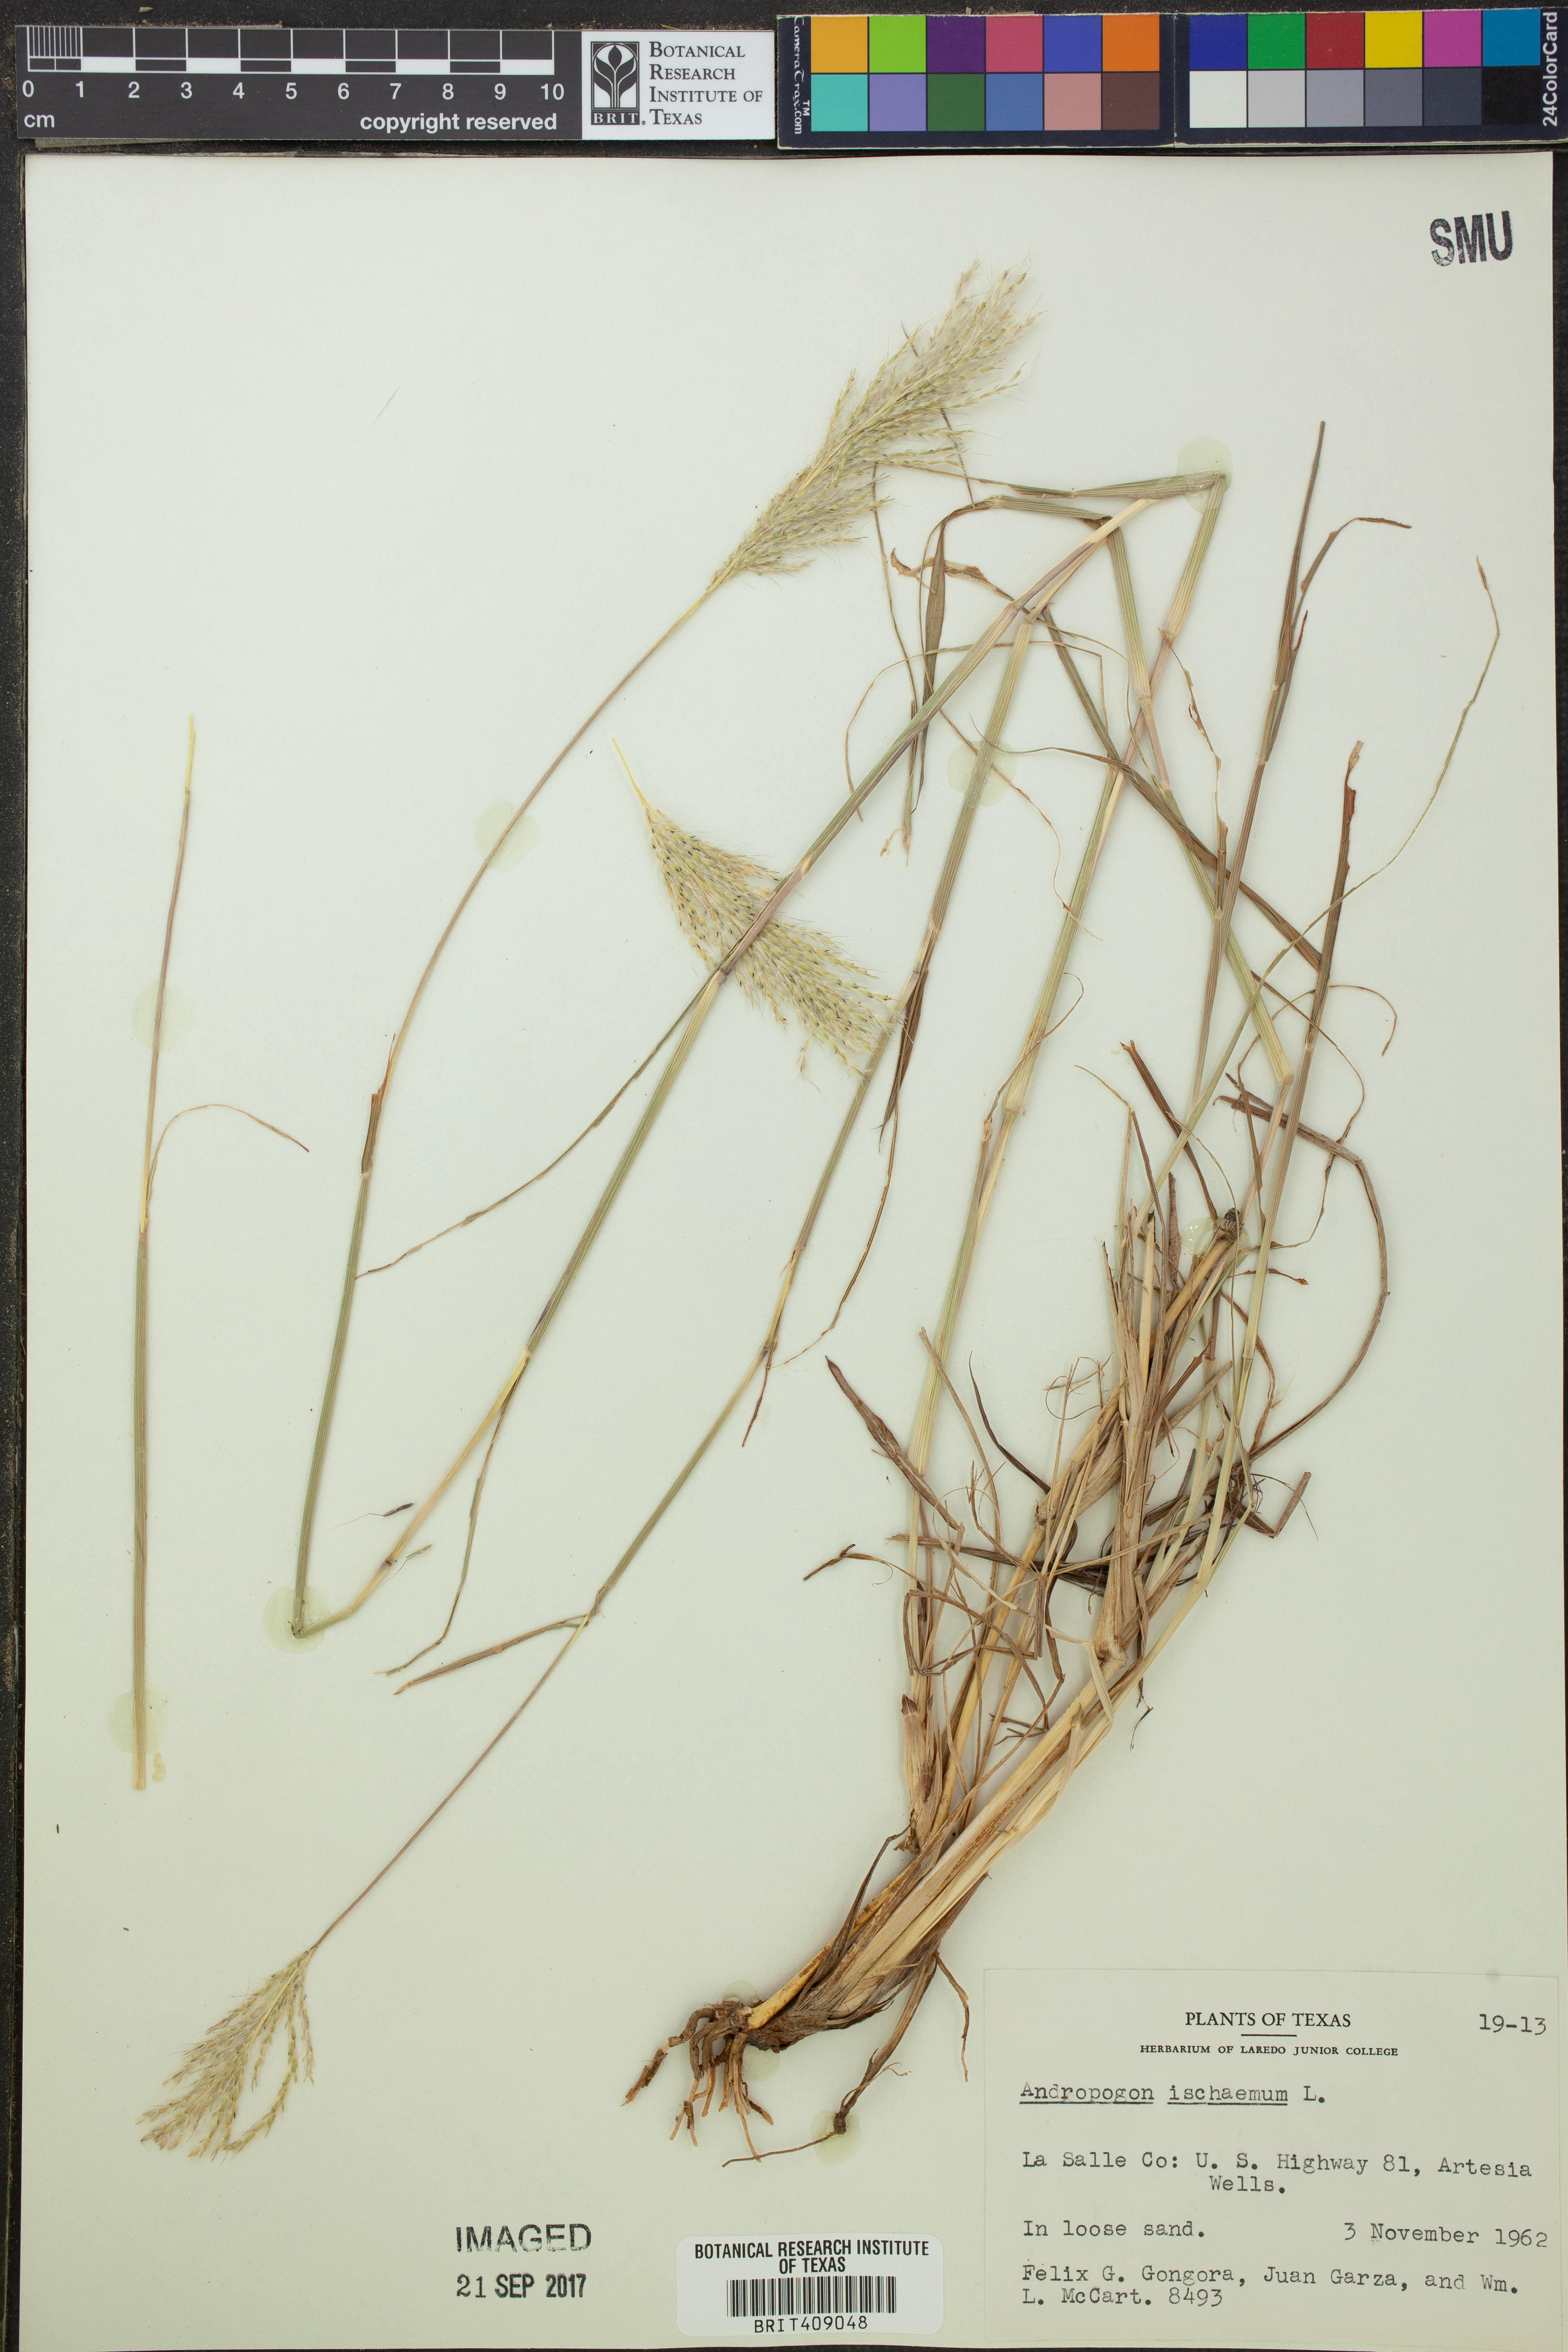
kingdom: Plantae
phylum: Tracheophyta
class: Liliopsida
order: Poales
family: Poaceae
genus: Andropogon
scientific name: Andropogon ischaemum
